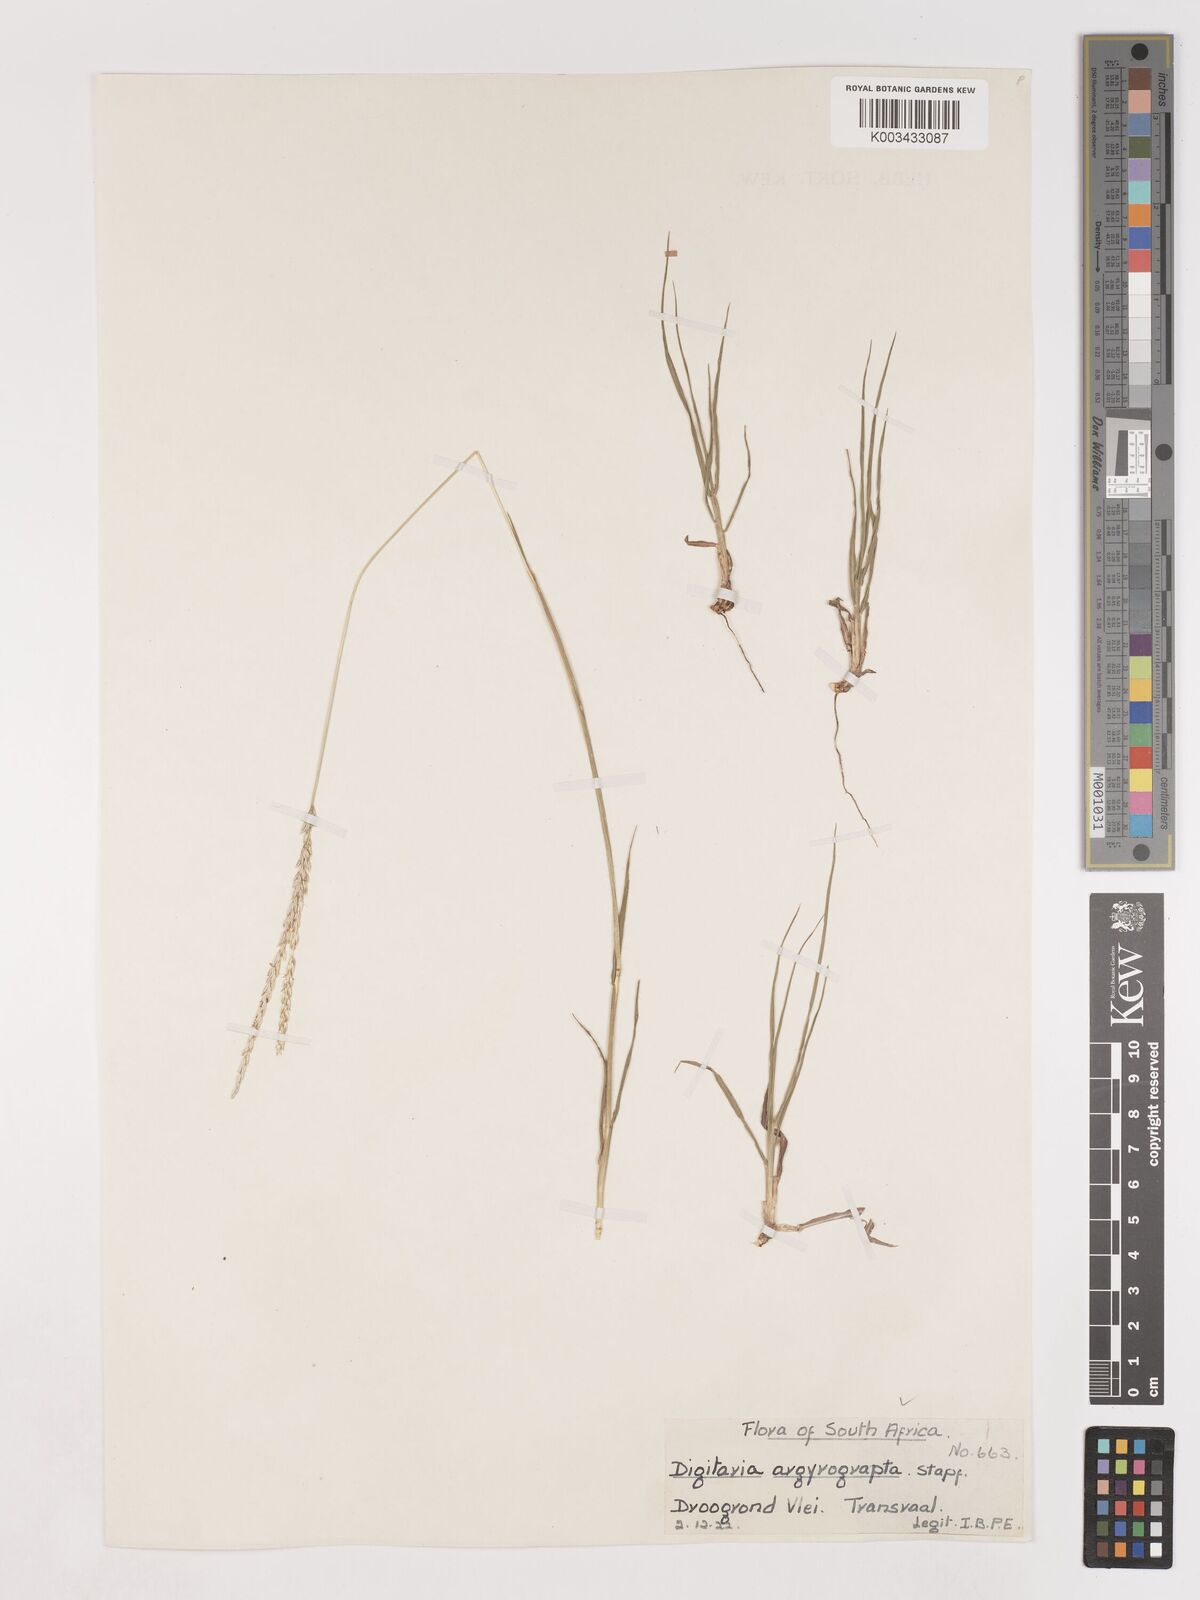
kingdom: Plantae
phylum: Tracheophyta
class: Liliopsida
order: Poales
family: Poaceae
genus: Digitaria
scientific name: Digitaria argyrograpta
